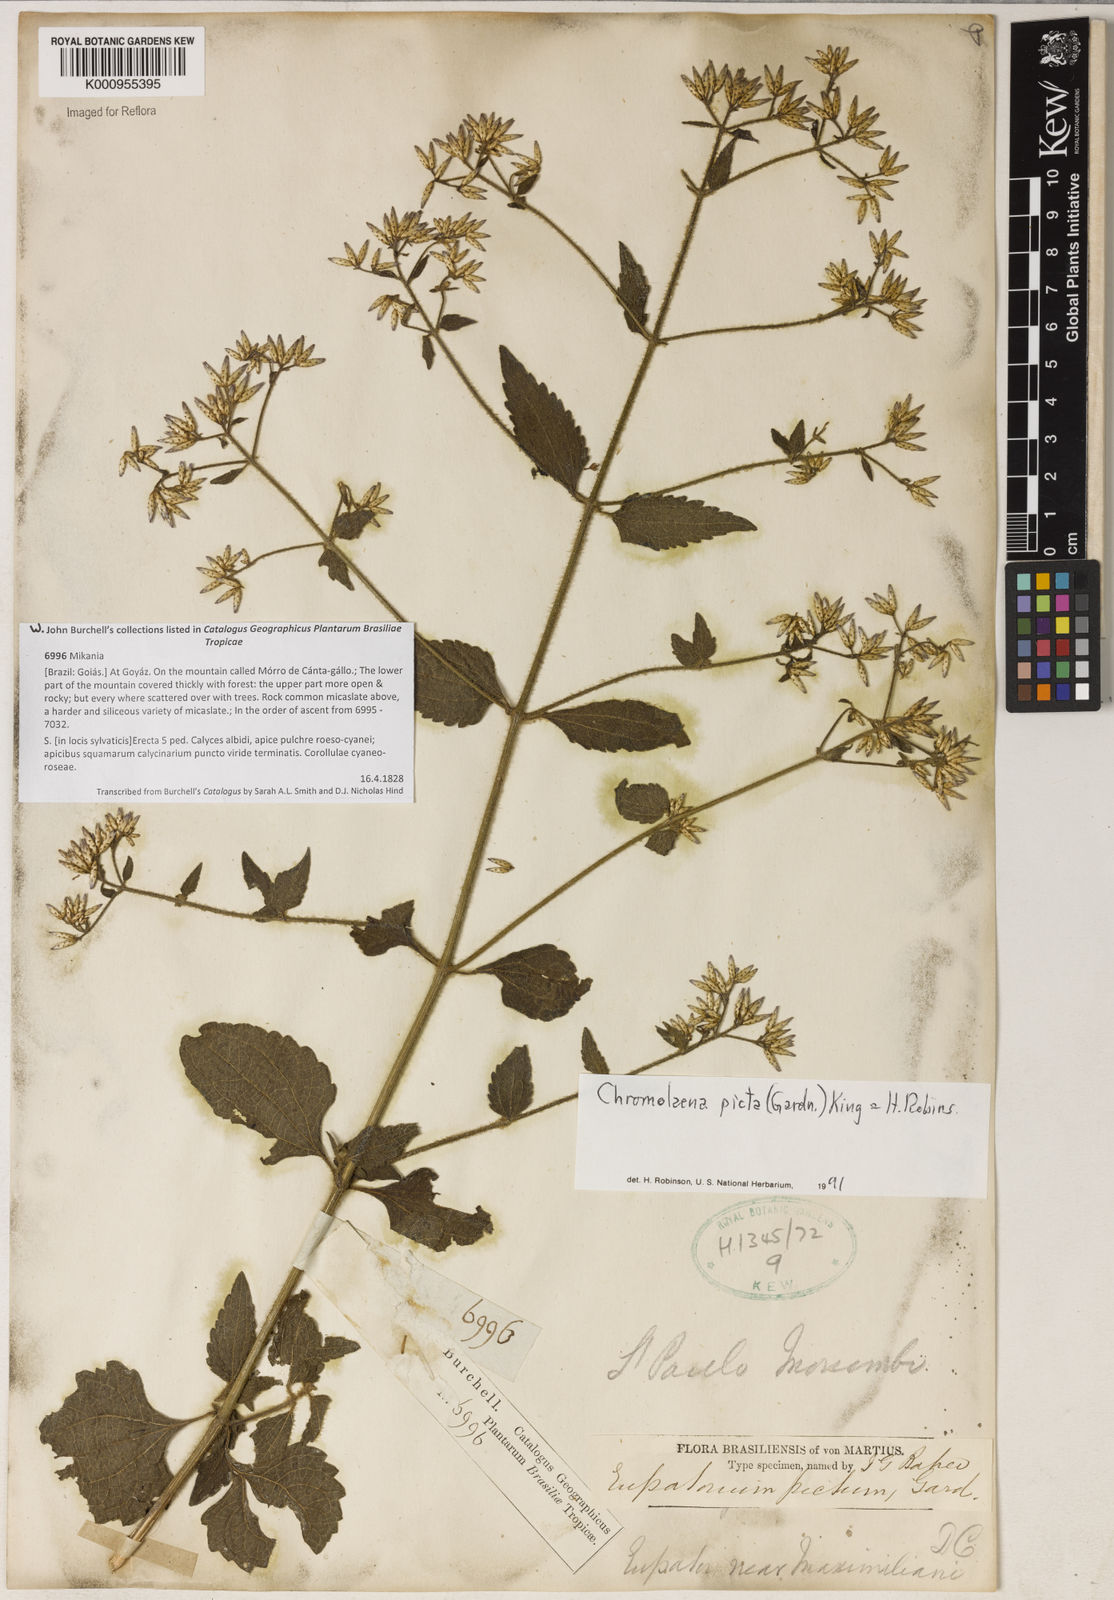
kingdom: Plantae
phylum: Tracheophyta
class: Magnoliopsida
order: Asterales
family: Asteraceae
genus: Chromolaena
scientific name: Chromolaena picta
